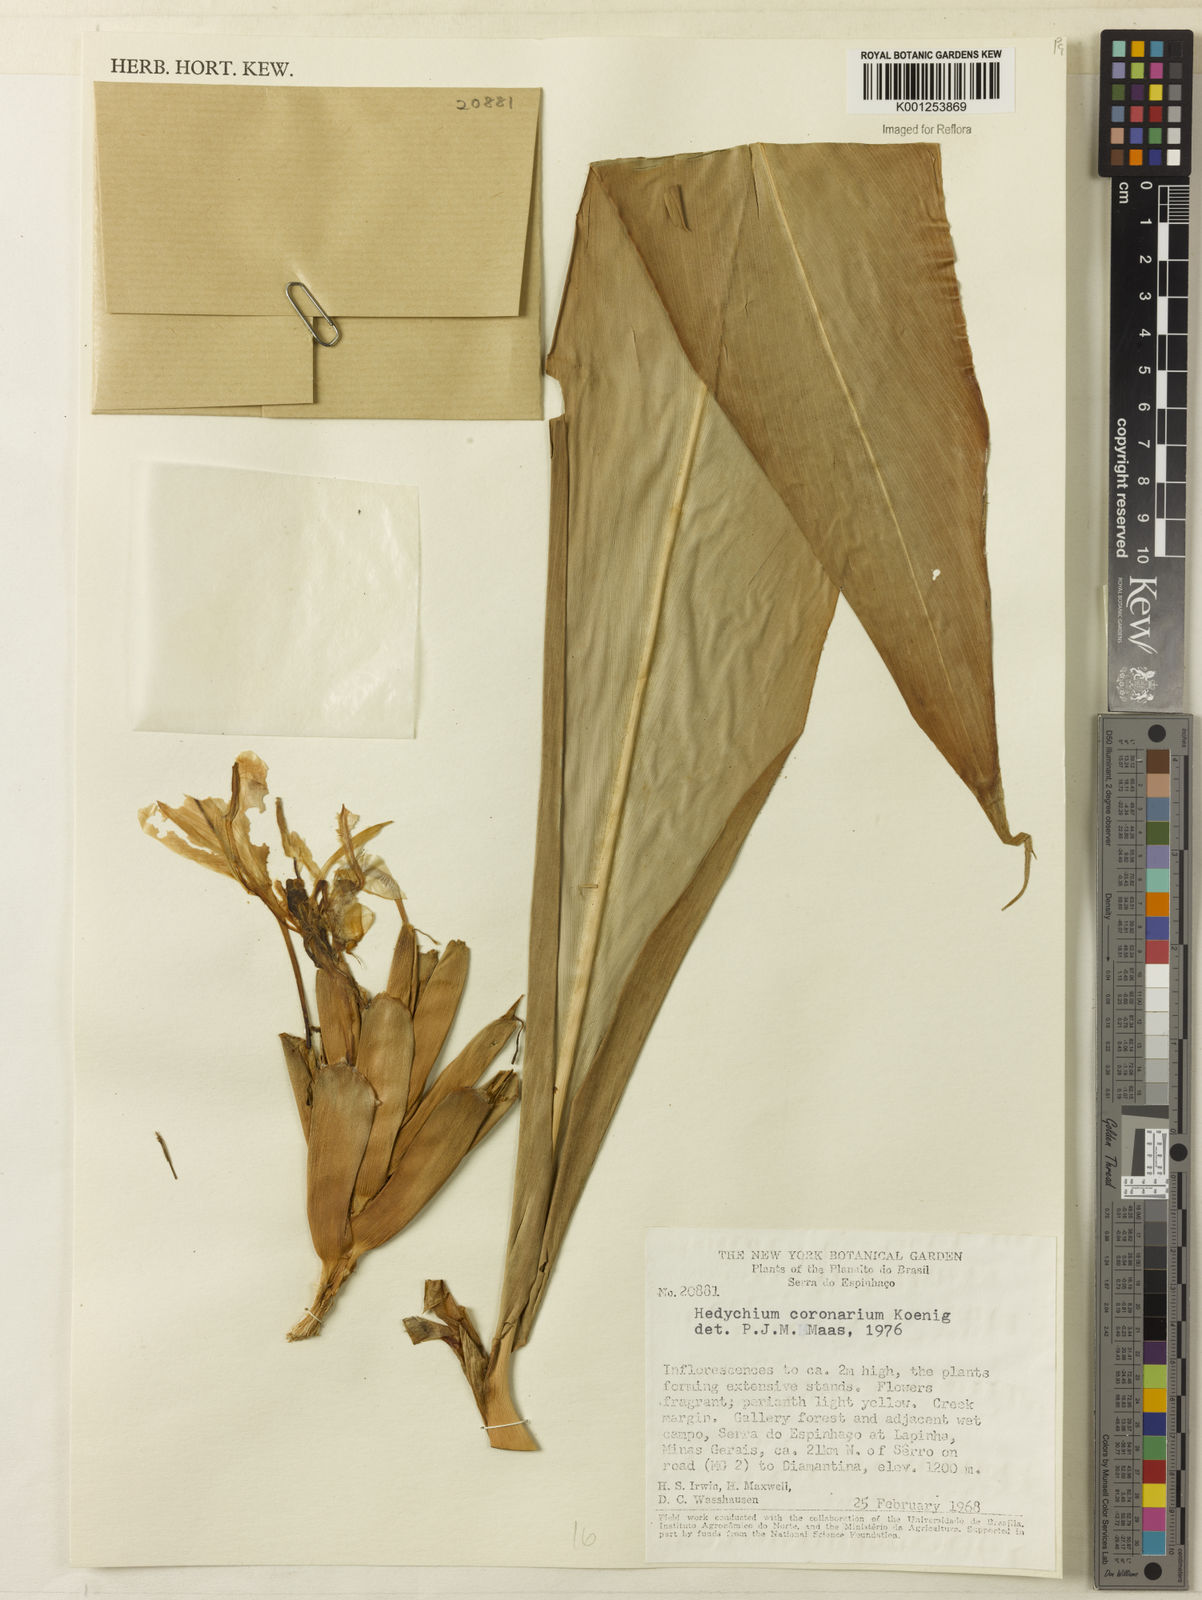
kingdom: Plantae
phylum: Tracheophyta
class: Liliopsida
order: Zingiberales
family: Zingiberaceae
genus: Hedychium
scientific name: Hedychium coronarium
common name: White garland-lily
